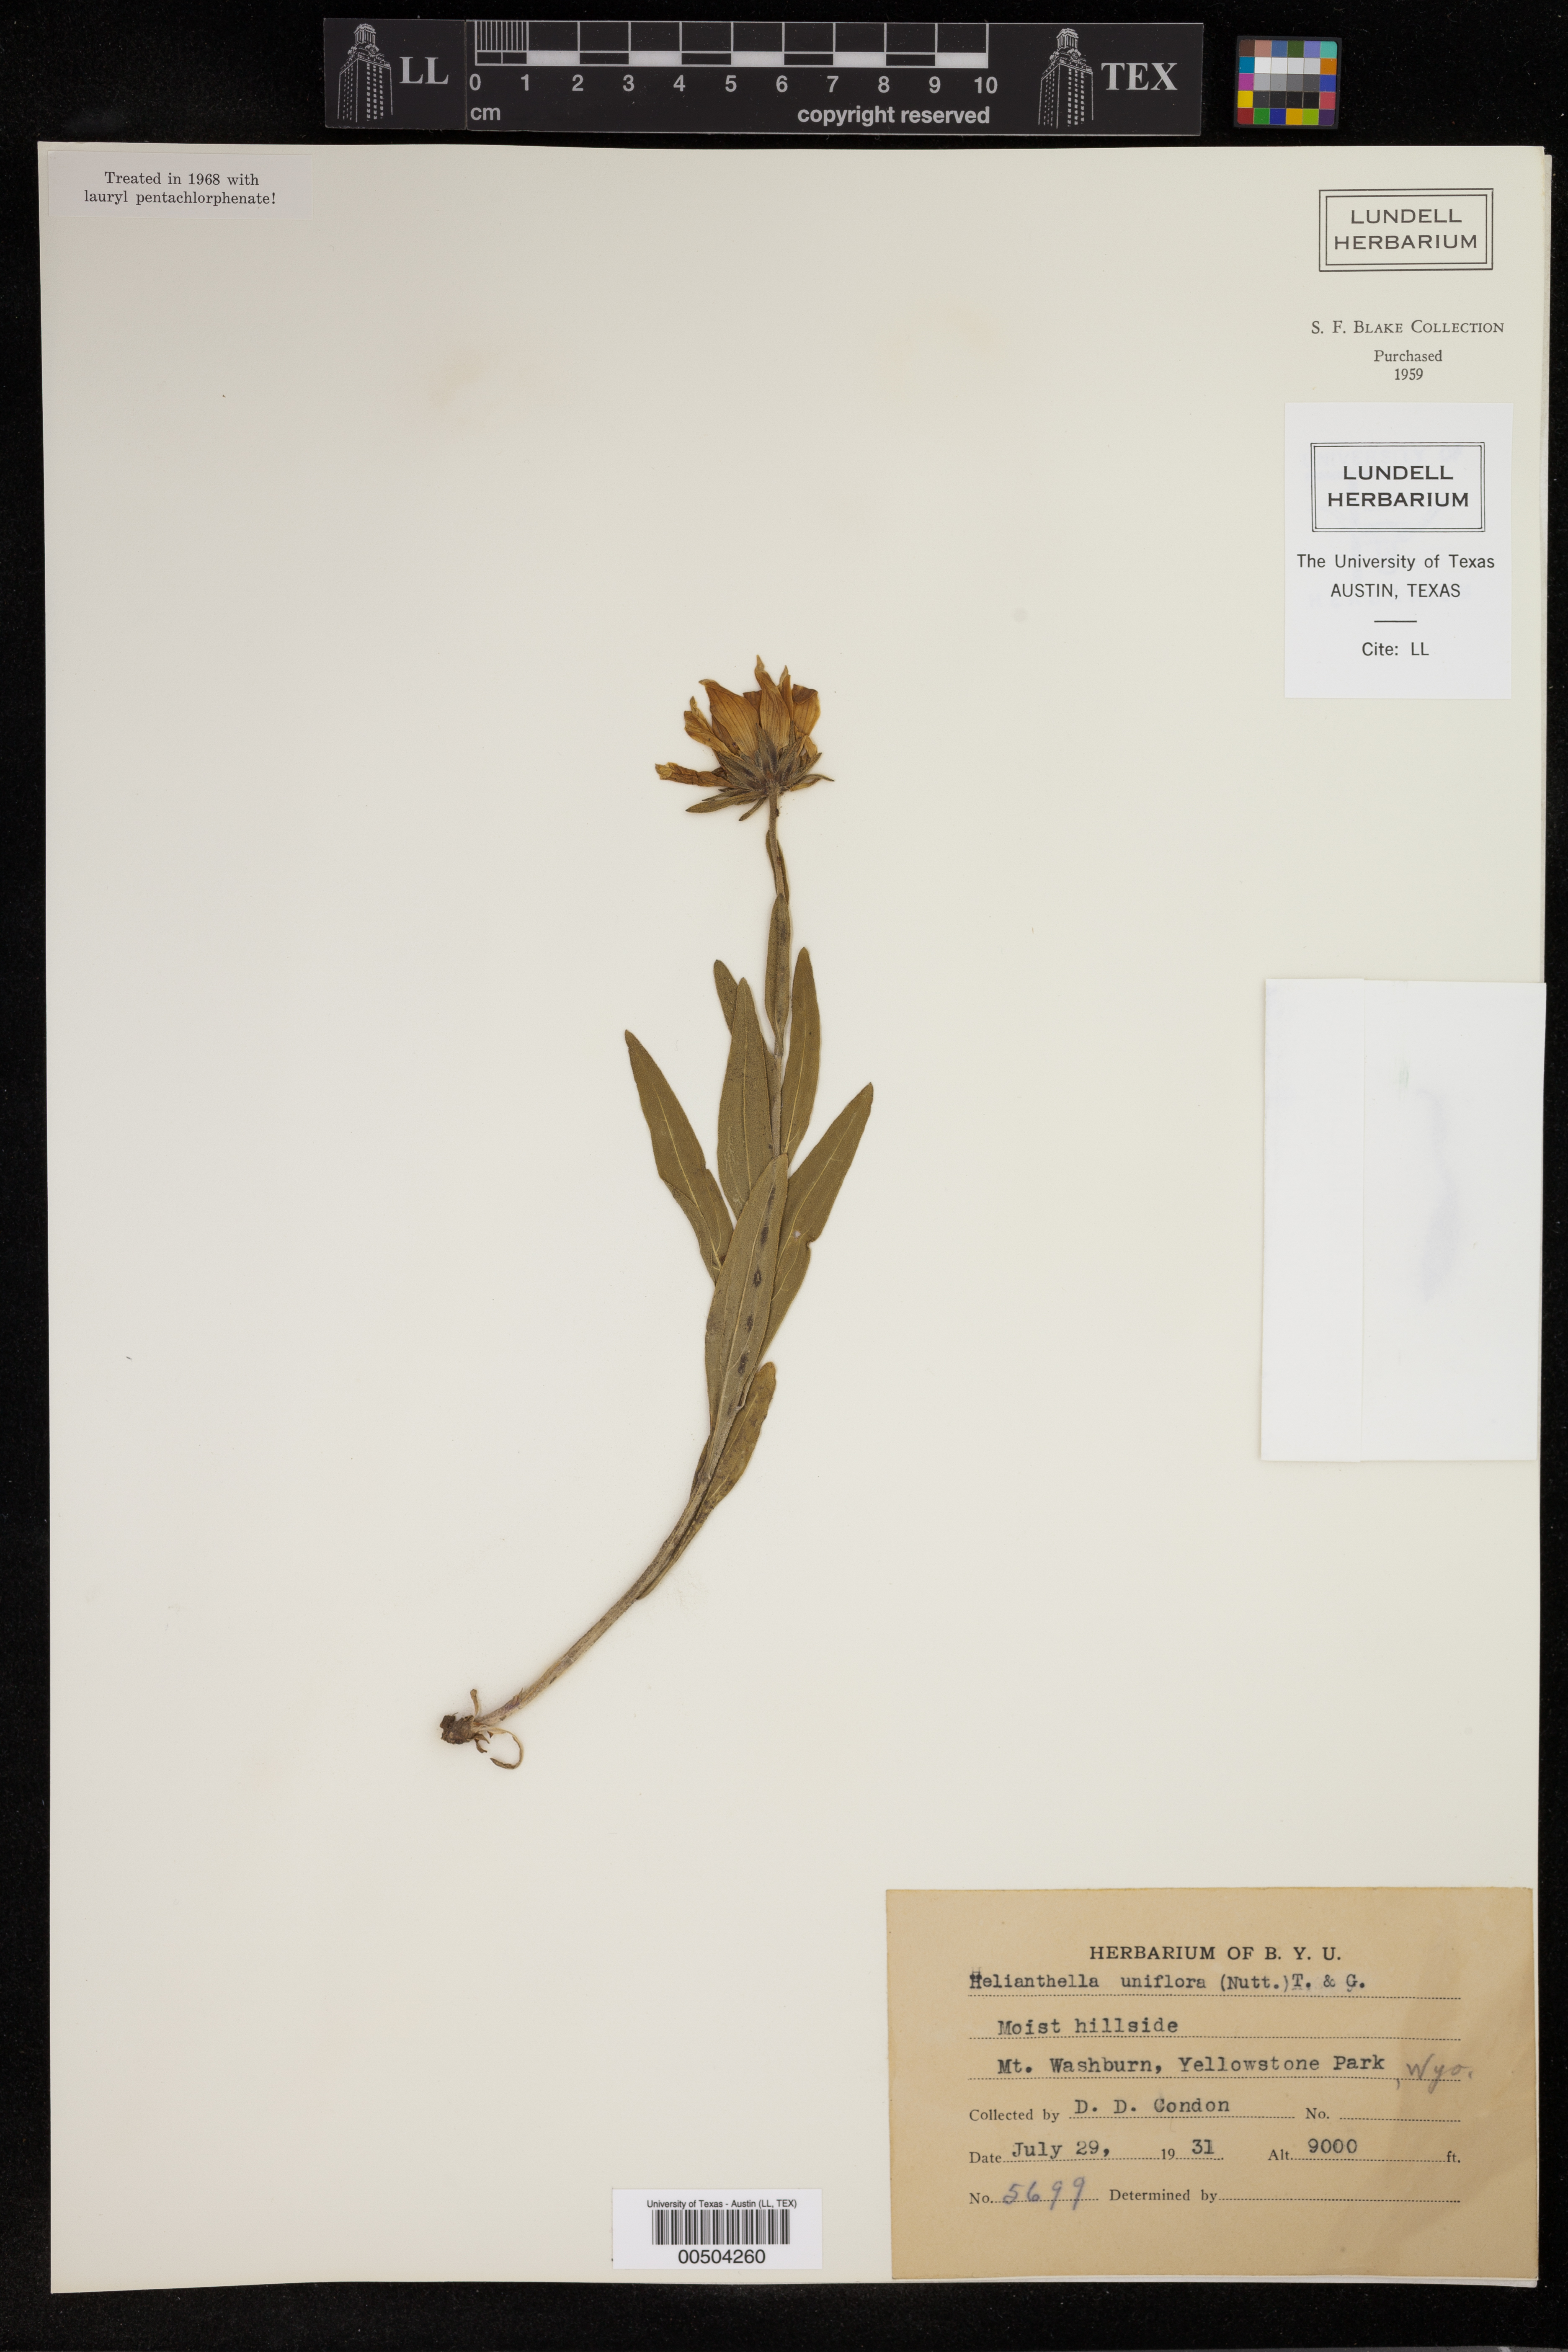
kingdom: Plantae
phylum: Tracheophyta
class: Magnoliopsida
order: Asterales
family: Asteraceae
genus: Helianthella
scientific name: Helianthella uniflora
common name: Rocky mountain dwarf sunflower
